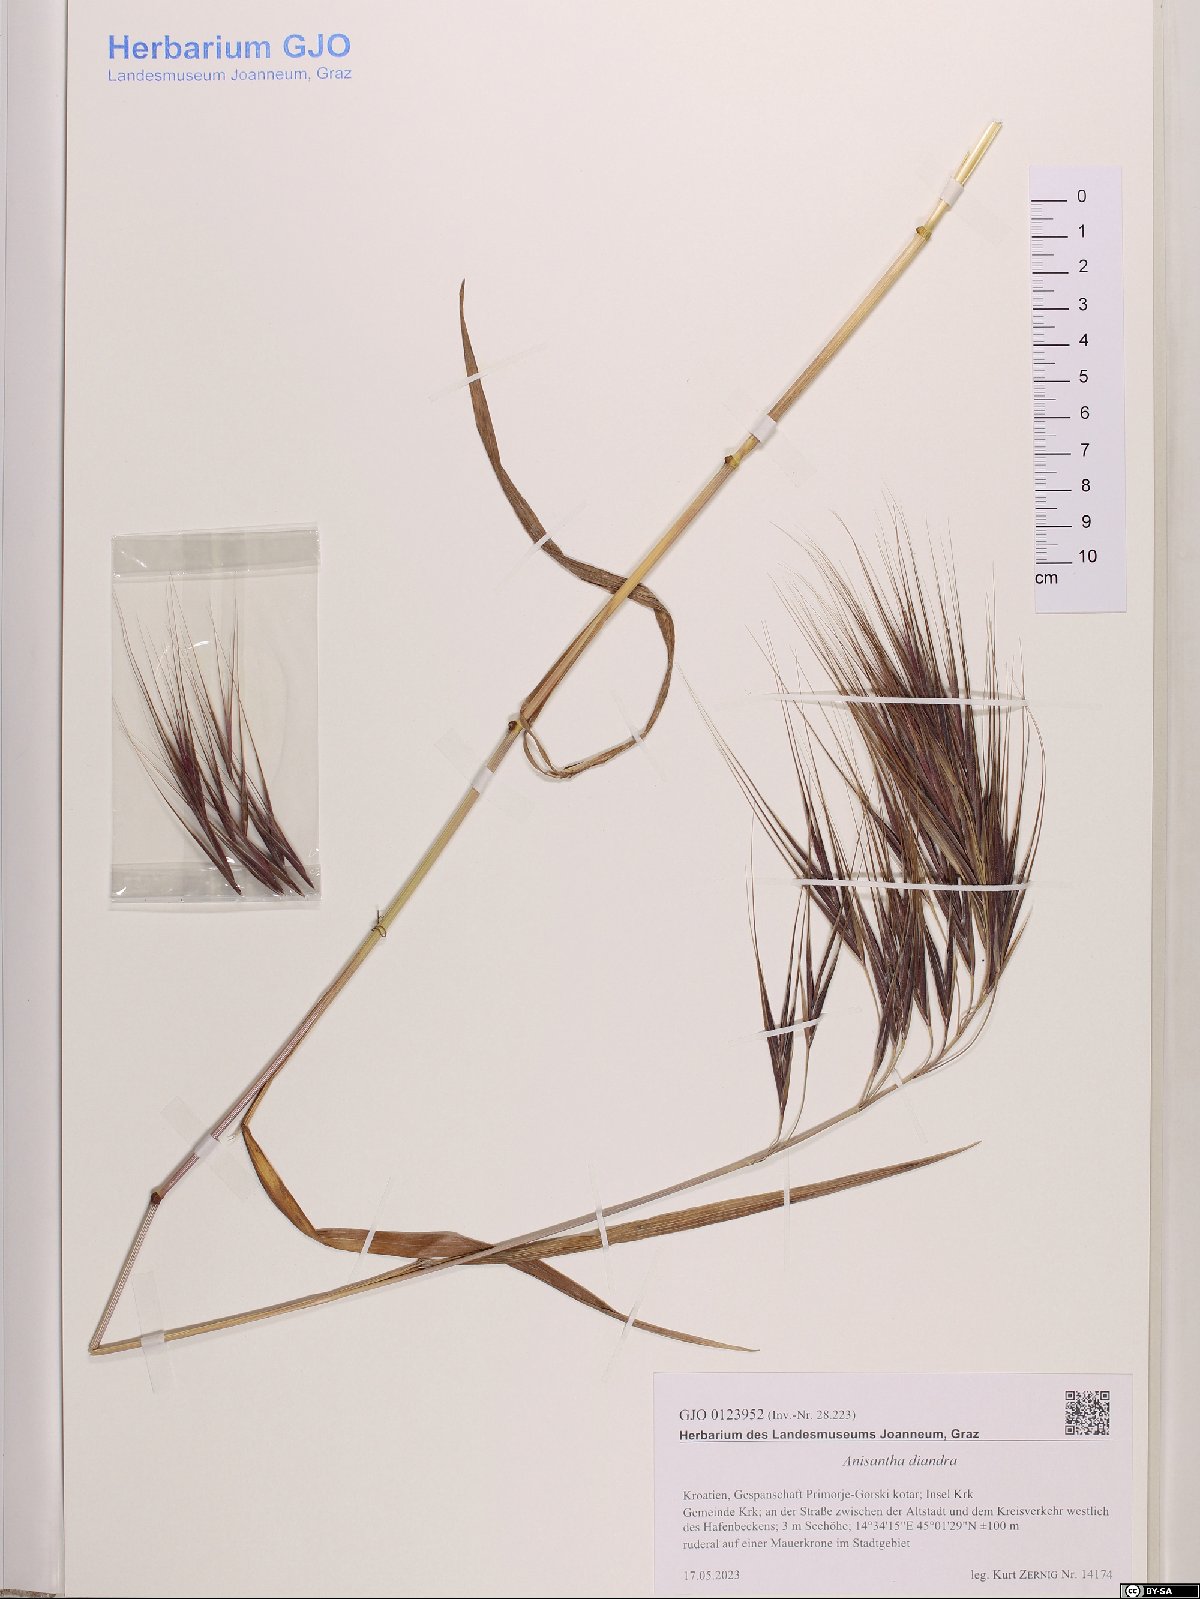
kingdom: Plantae
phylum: Tracheophyta
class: Liliopsida
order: Poales
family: Poaceae
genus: Bromus
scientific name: Bromus diandrus
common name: Ripgut brome
